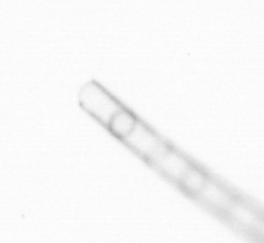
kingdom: Chromista
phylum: Ochrophyta
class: Bacillariophyceae
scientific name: Bacillariophyceae
